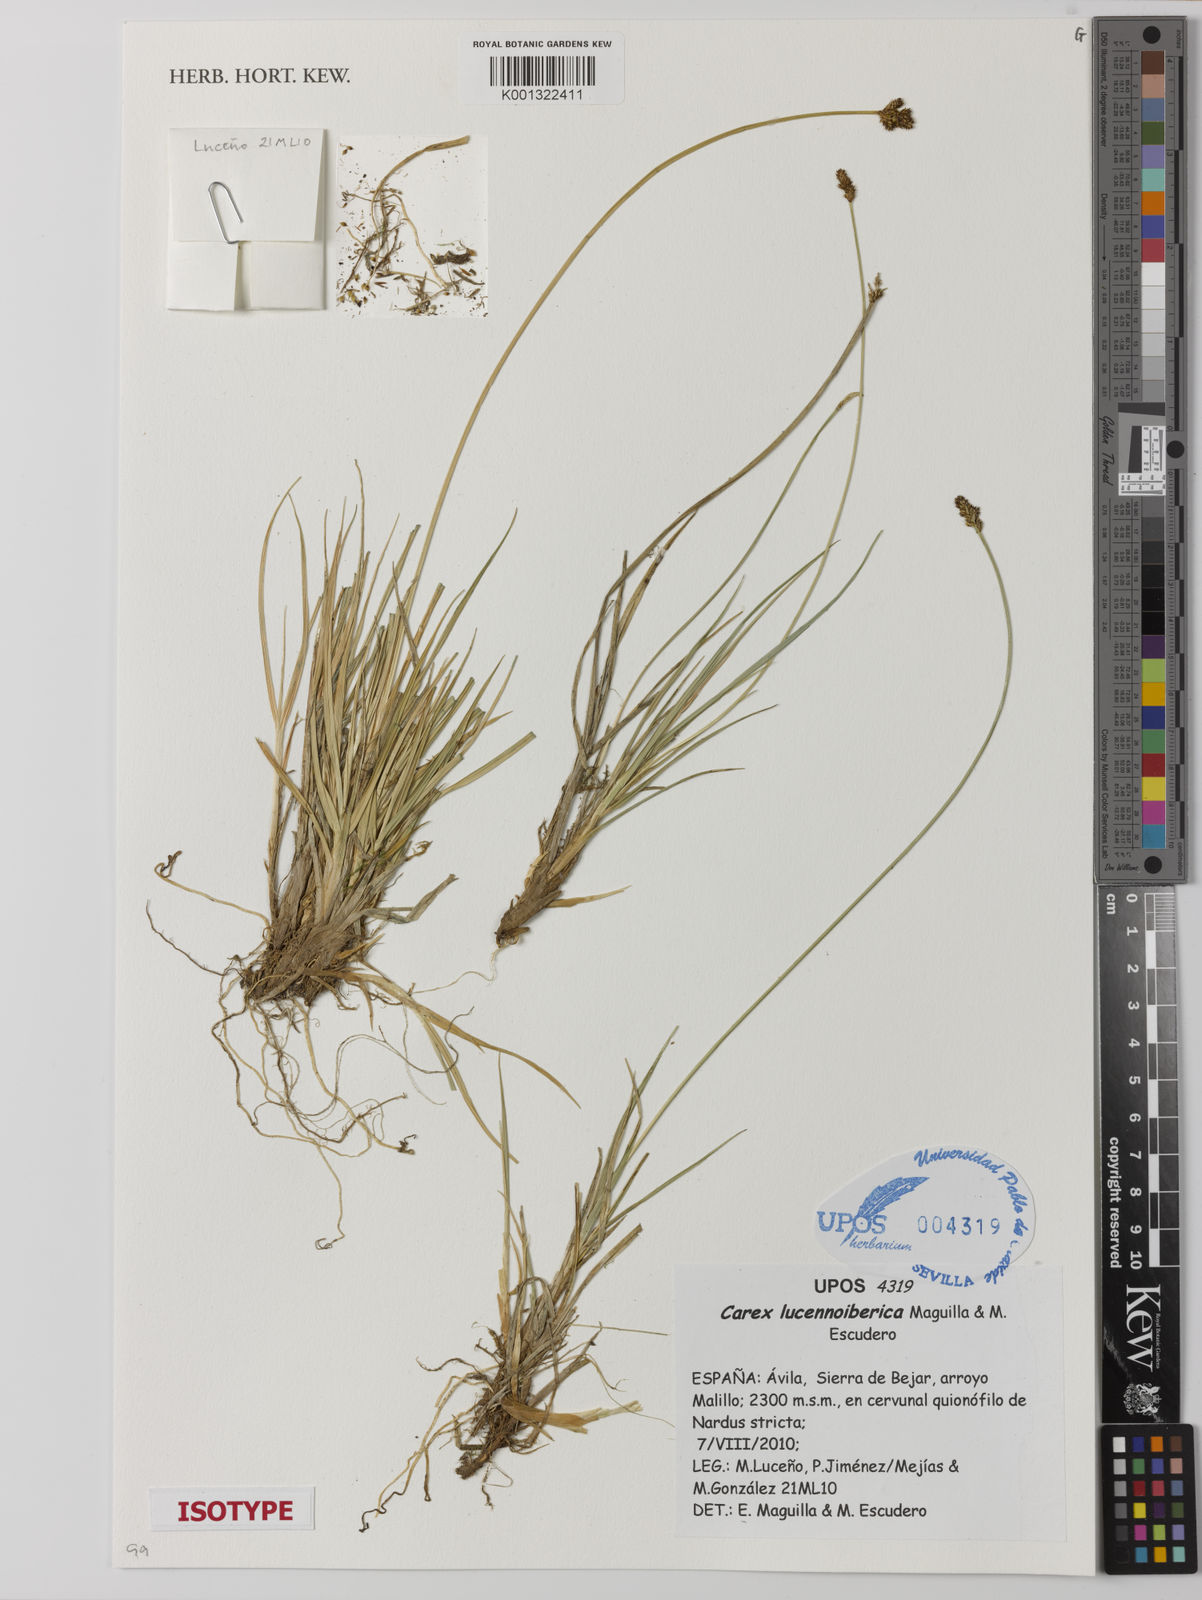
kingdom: Plantae
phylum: Tracheophyta
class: Liliopsida
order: Poales
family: Cyperaceae
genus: Carex
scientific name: Carex lucennoiberica
